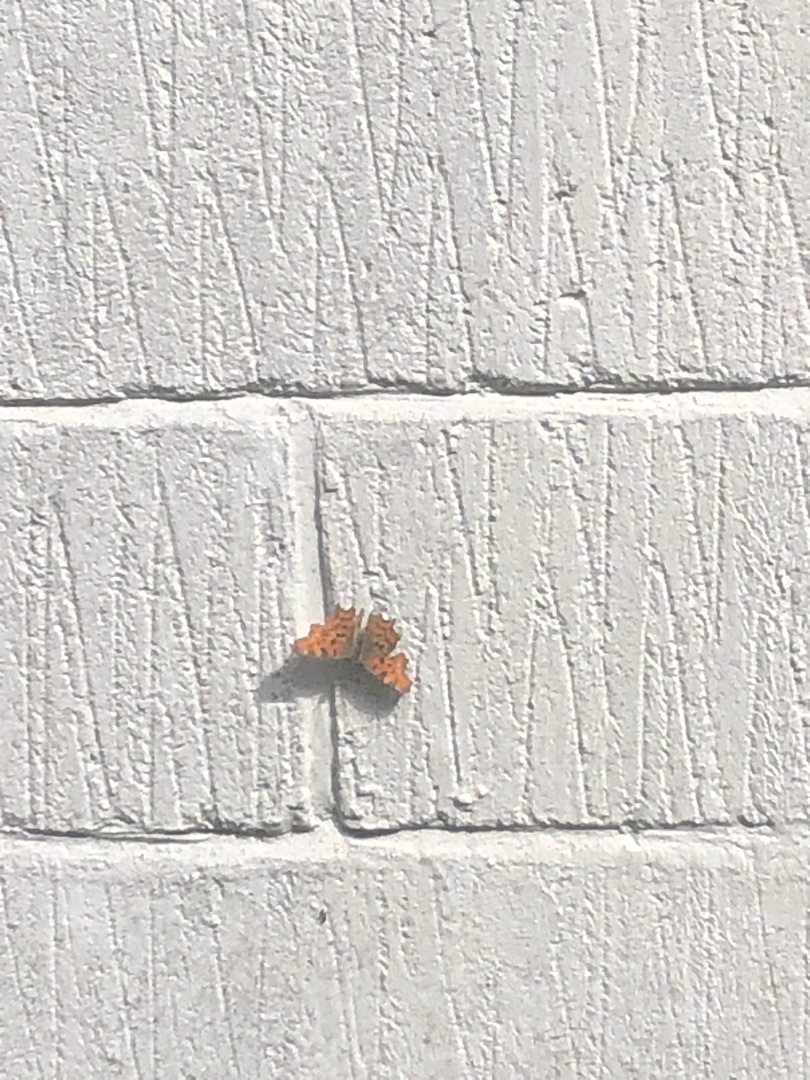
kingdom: Animalia
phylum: Arthropoda
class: Insecta
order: Lepidoptera
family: Nymphalidae
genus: Polygonia
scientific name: Polygonia c-album
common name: Det hvide C
